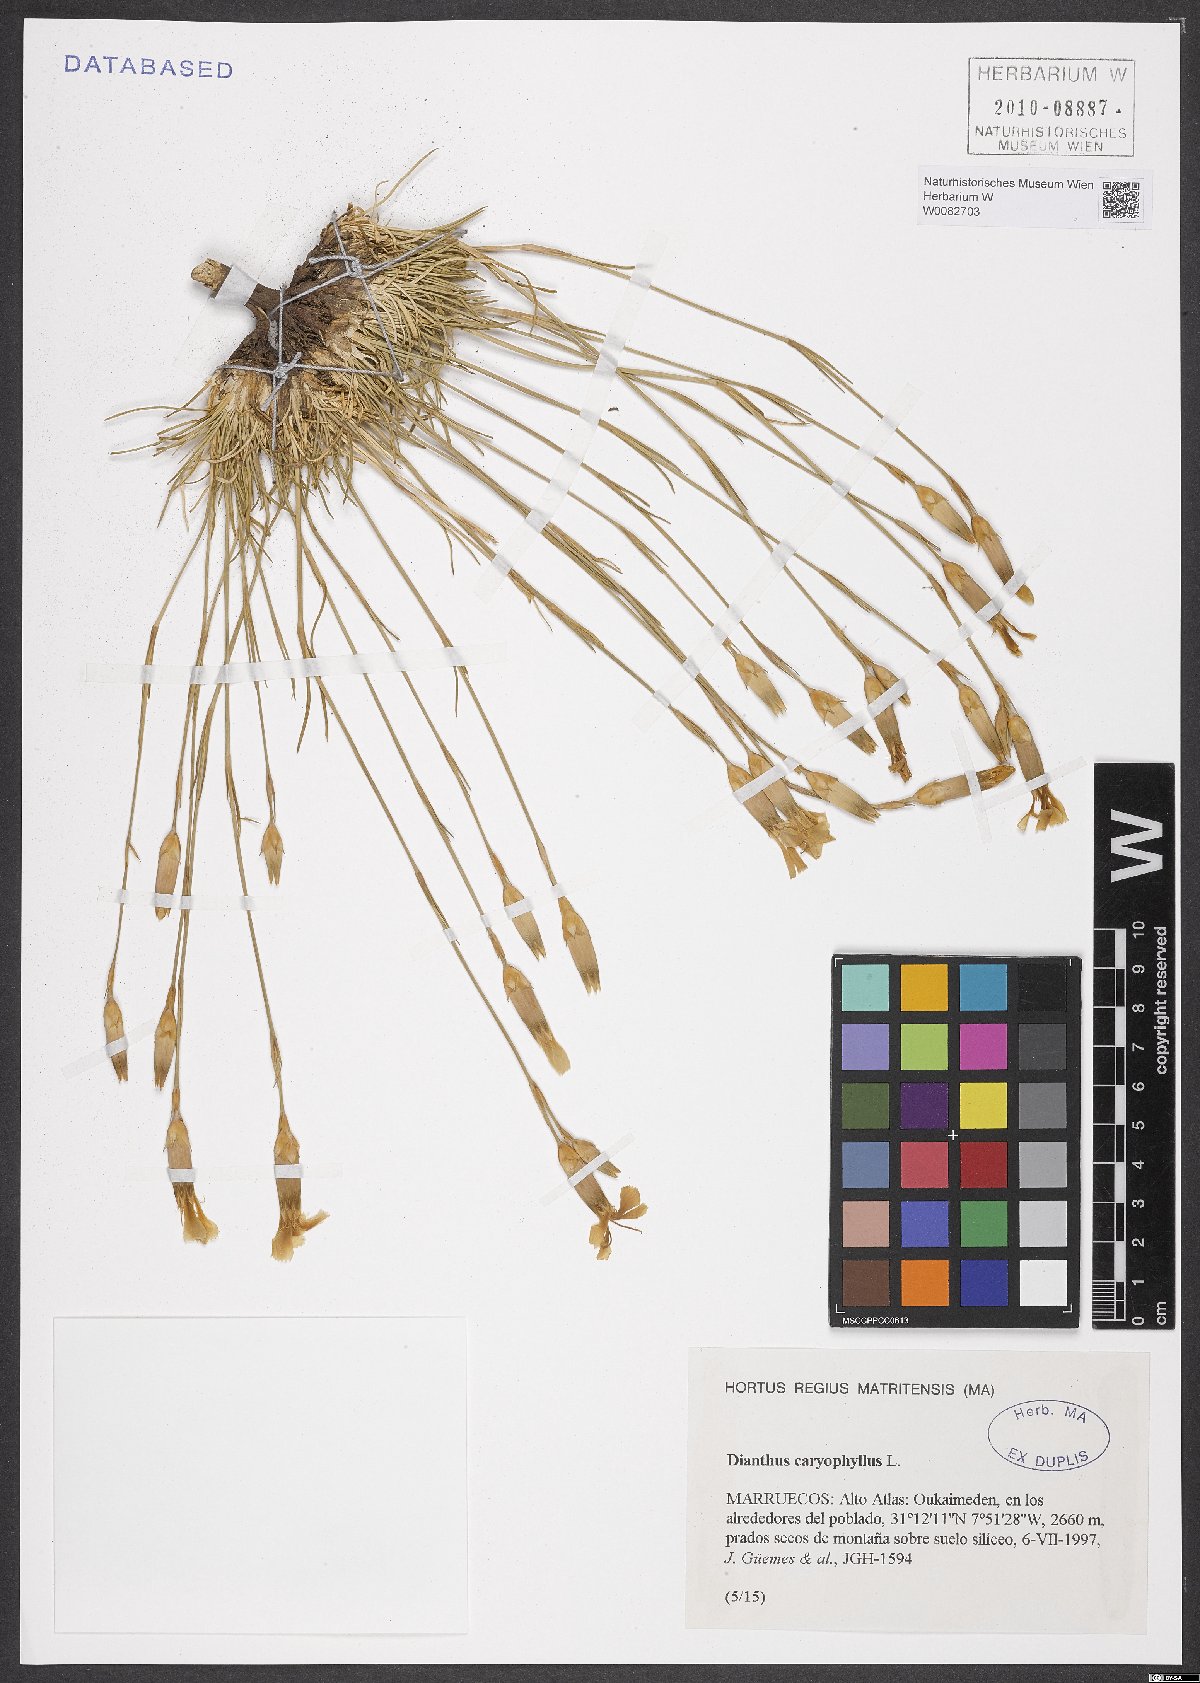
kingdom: Plantae
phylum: Tracheophyta
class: Magnoliopsida
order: Caryophyllales
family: Caryophyllaceae
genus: Dianthus
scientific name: Dianthus caryophyllus
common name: Clove pink
